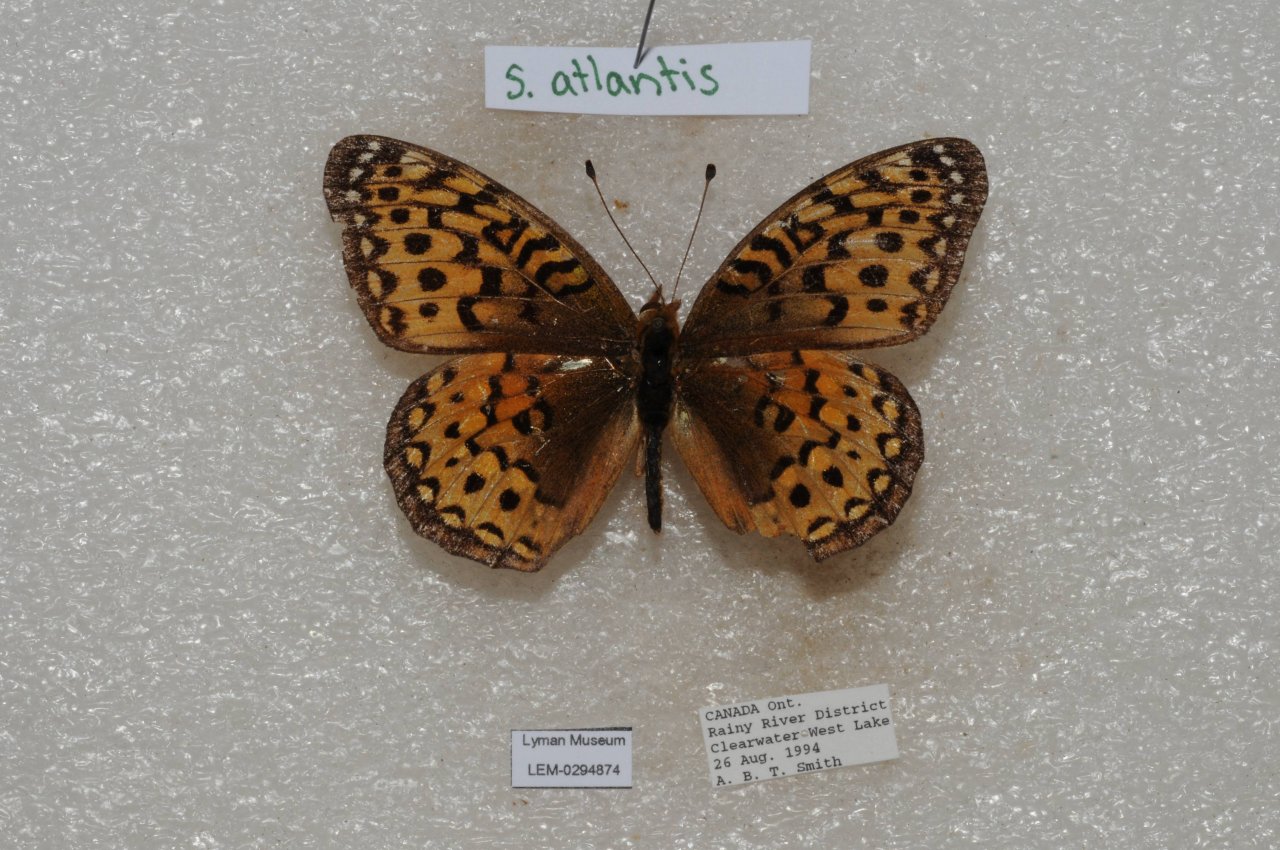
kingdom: Animalia
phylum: Arthropoda
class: Insecta
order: Lepidoptera
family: Nymphalidae
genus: Speyeria
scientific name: Speyeria atlantis
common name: Atlantis Fritillary
